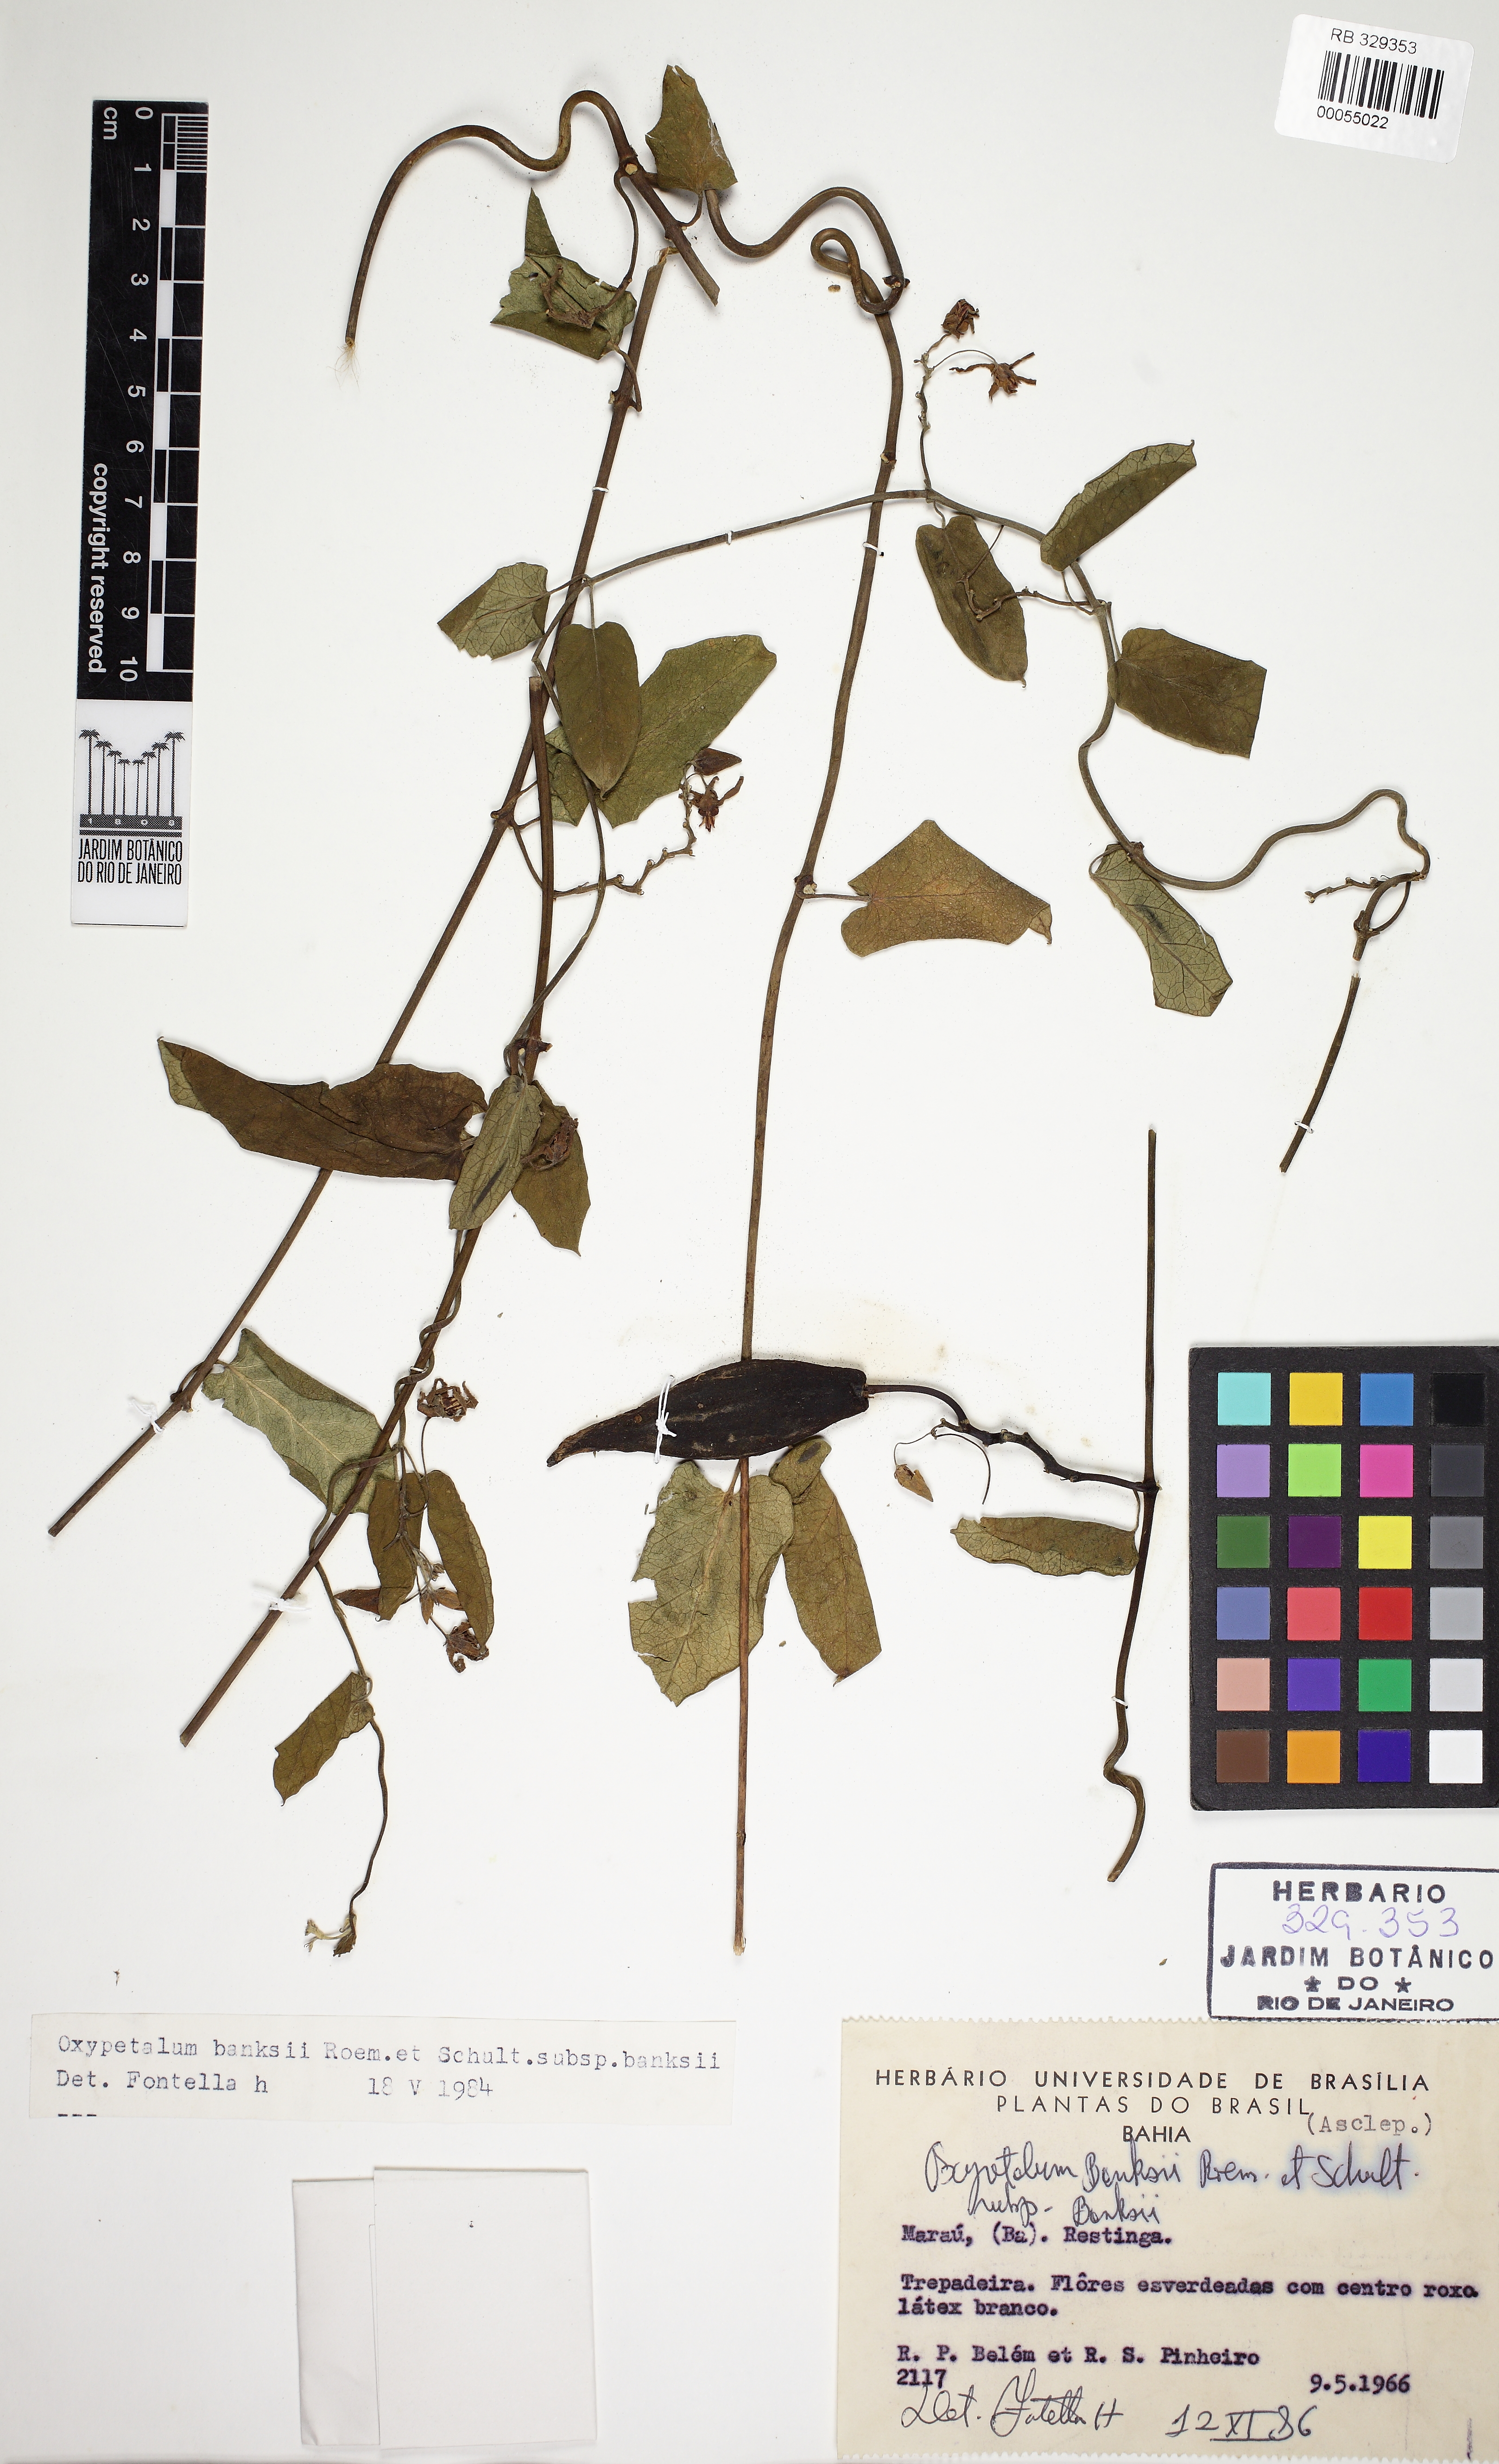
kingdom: Plantae
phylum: Tracheophyta
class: Magnoliopsida
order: Gentianales
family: Apocynaceae
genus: Oxypetalum
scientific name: Oxypetalum banksii
